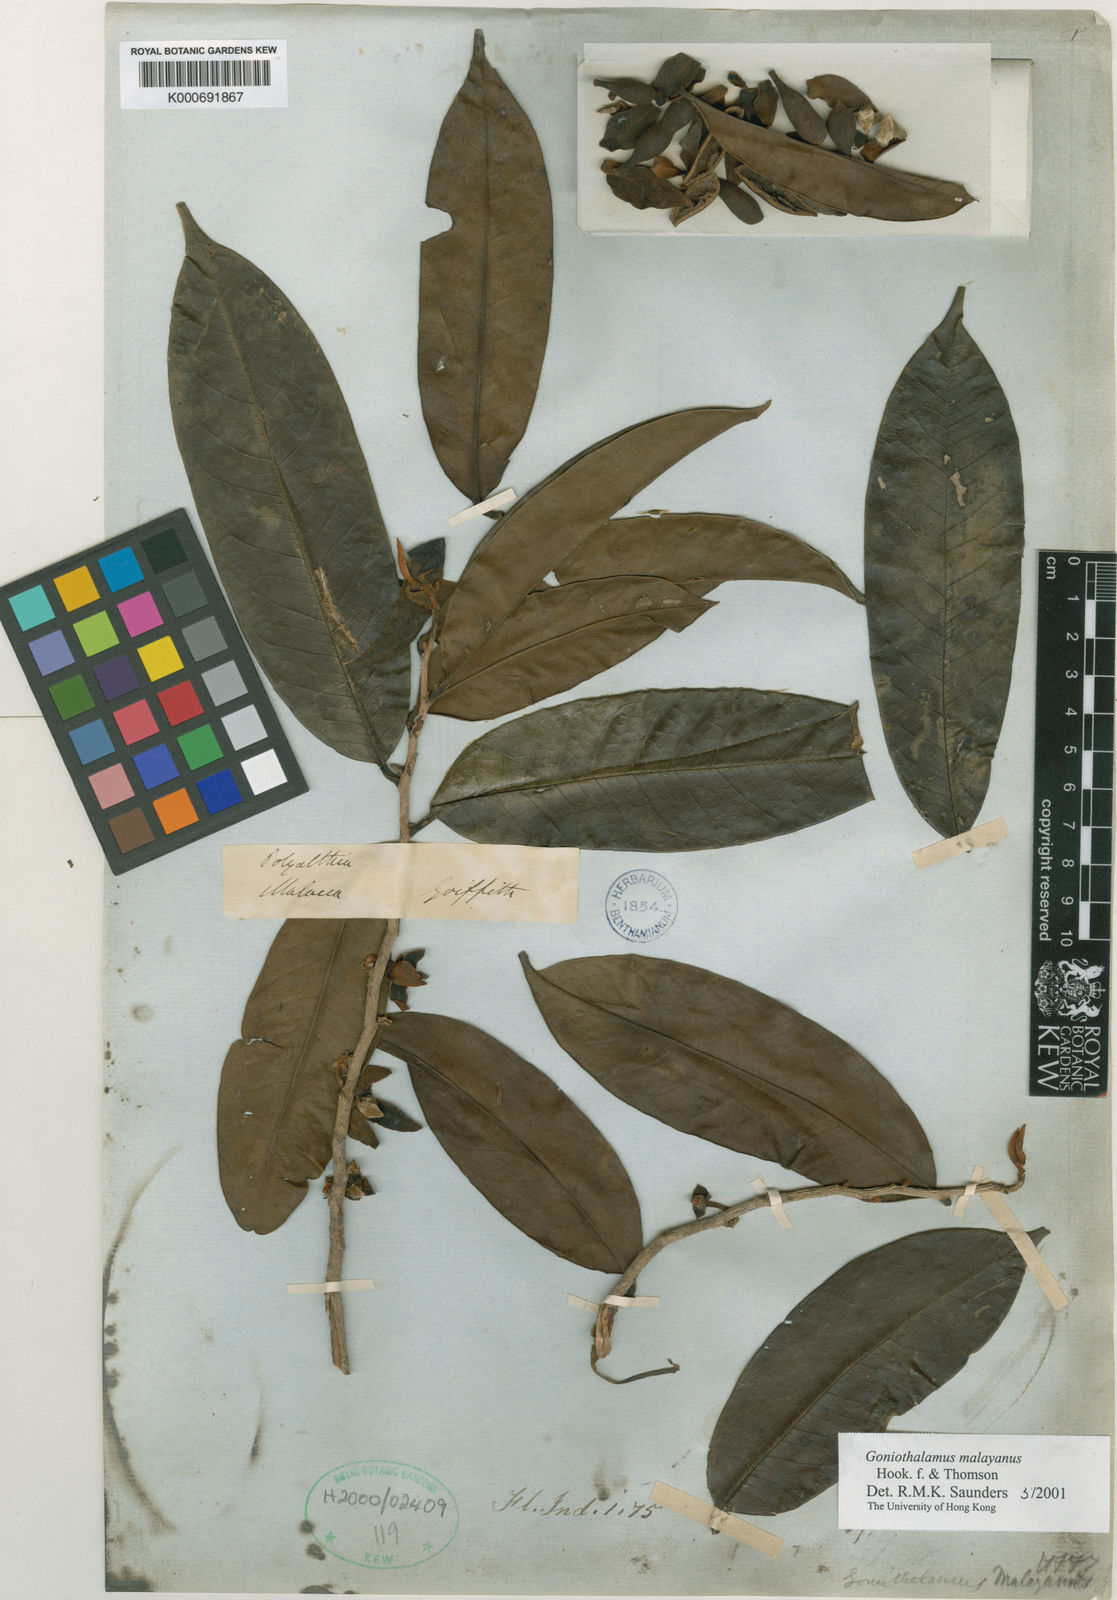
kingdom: Plantae
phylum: Tracheophyta
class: Magnoliopsida
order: Magnoliales
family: Annonaceae
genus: Goniothalamus
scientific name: Goniothalamus malayanus
